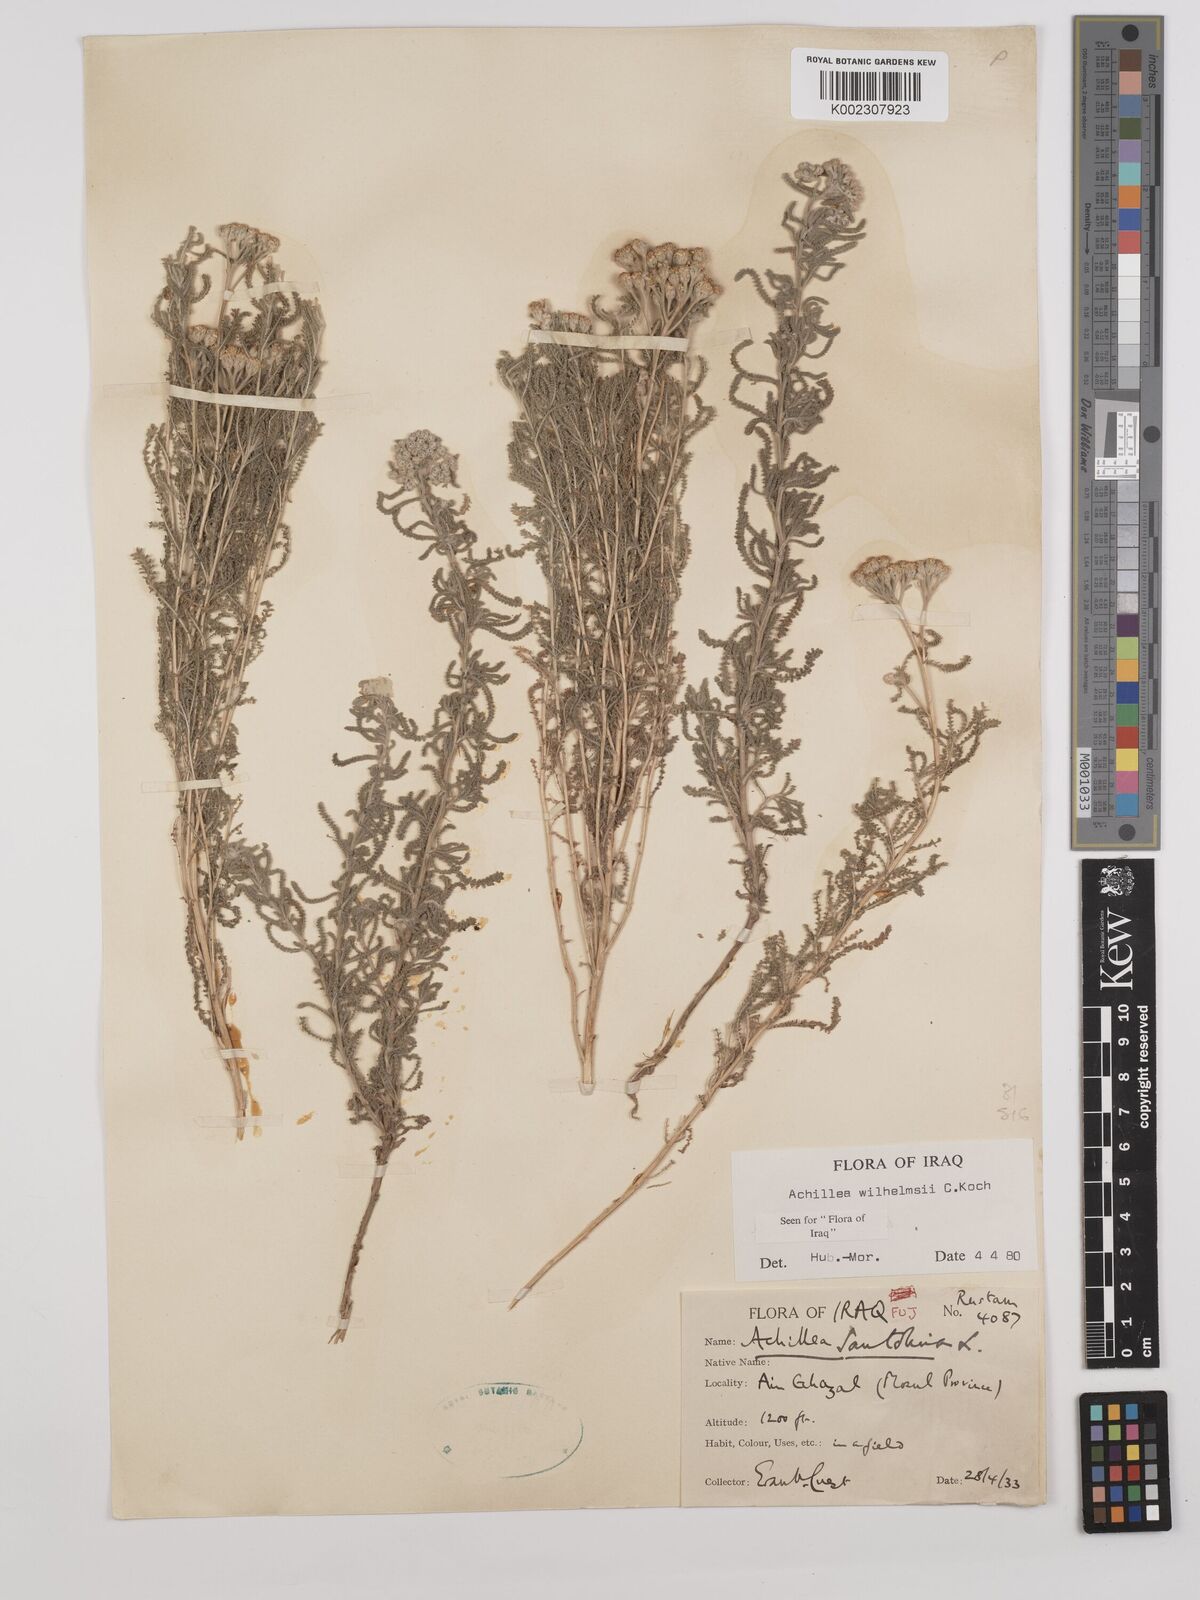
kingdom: Plantae
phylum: Tracheophyta
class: Magnoliopsida
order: Asterales
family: Asteraceae
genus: Achillea
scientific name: Achillea wilhelmsii
